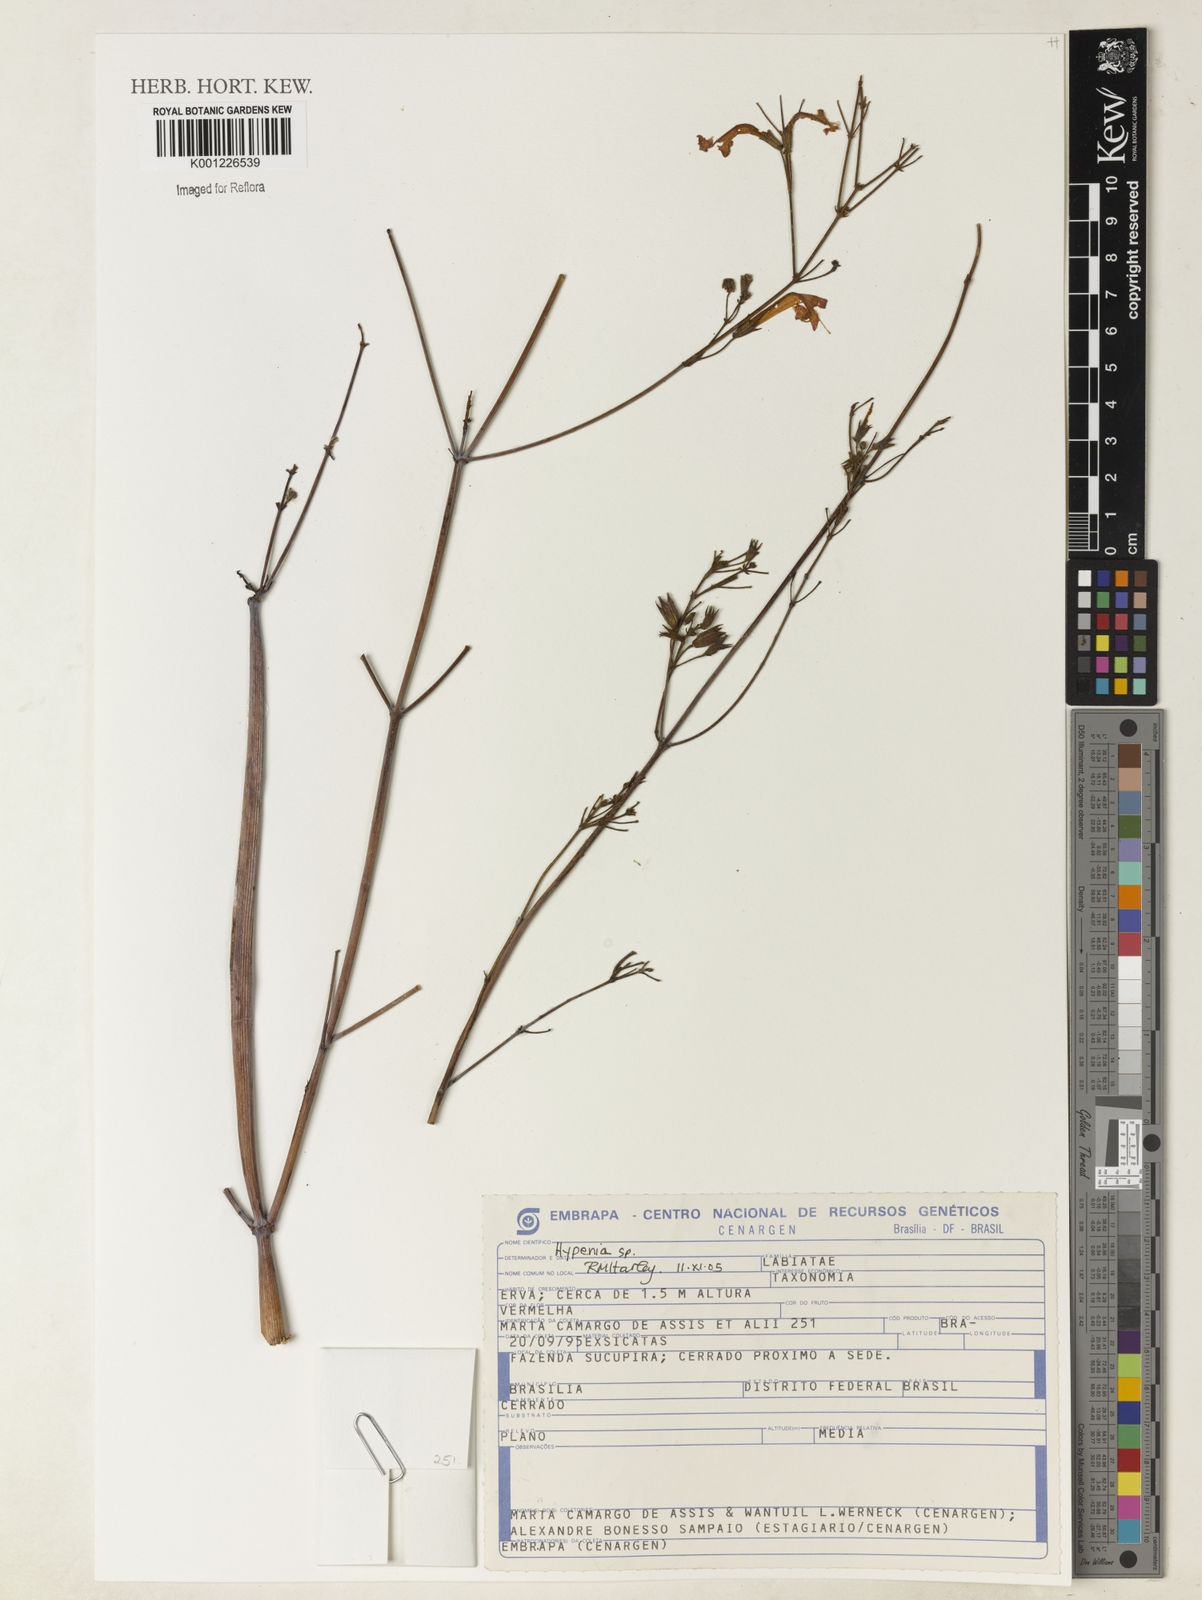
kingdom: Plantae
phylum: Tracheophyta
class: Magnoliopsida
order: Lamiales
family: Lamiaceae
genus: Hypenia
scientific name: Hypenia
